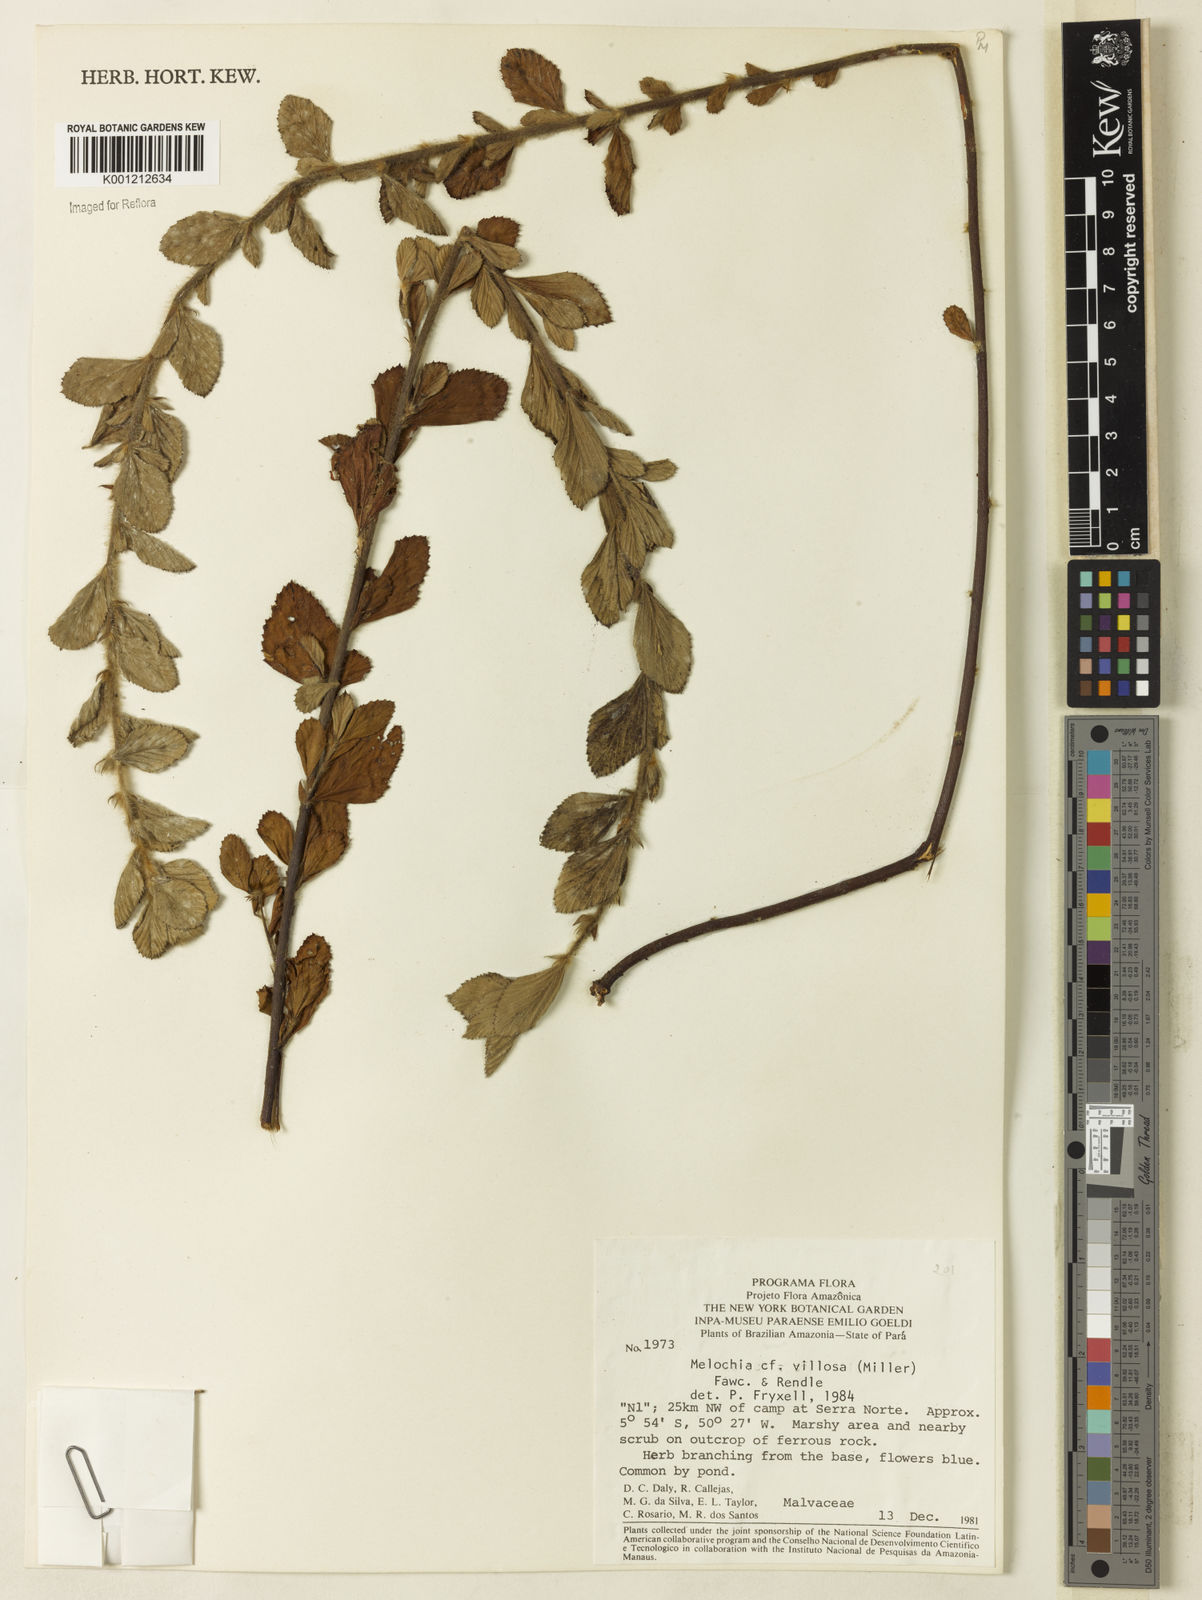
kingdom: Plantae
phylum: Tracheophyta
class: Magnoliopsida
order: Malvales
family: Malvaceae
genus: Melochia
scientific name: Melochia spicata
